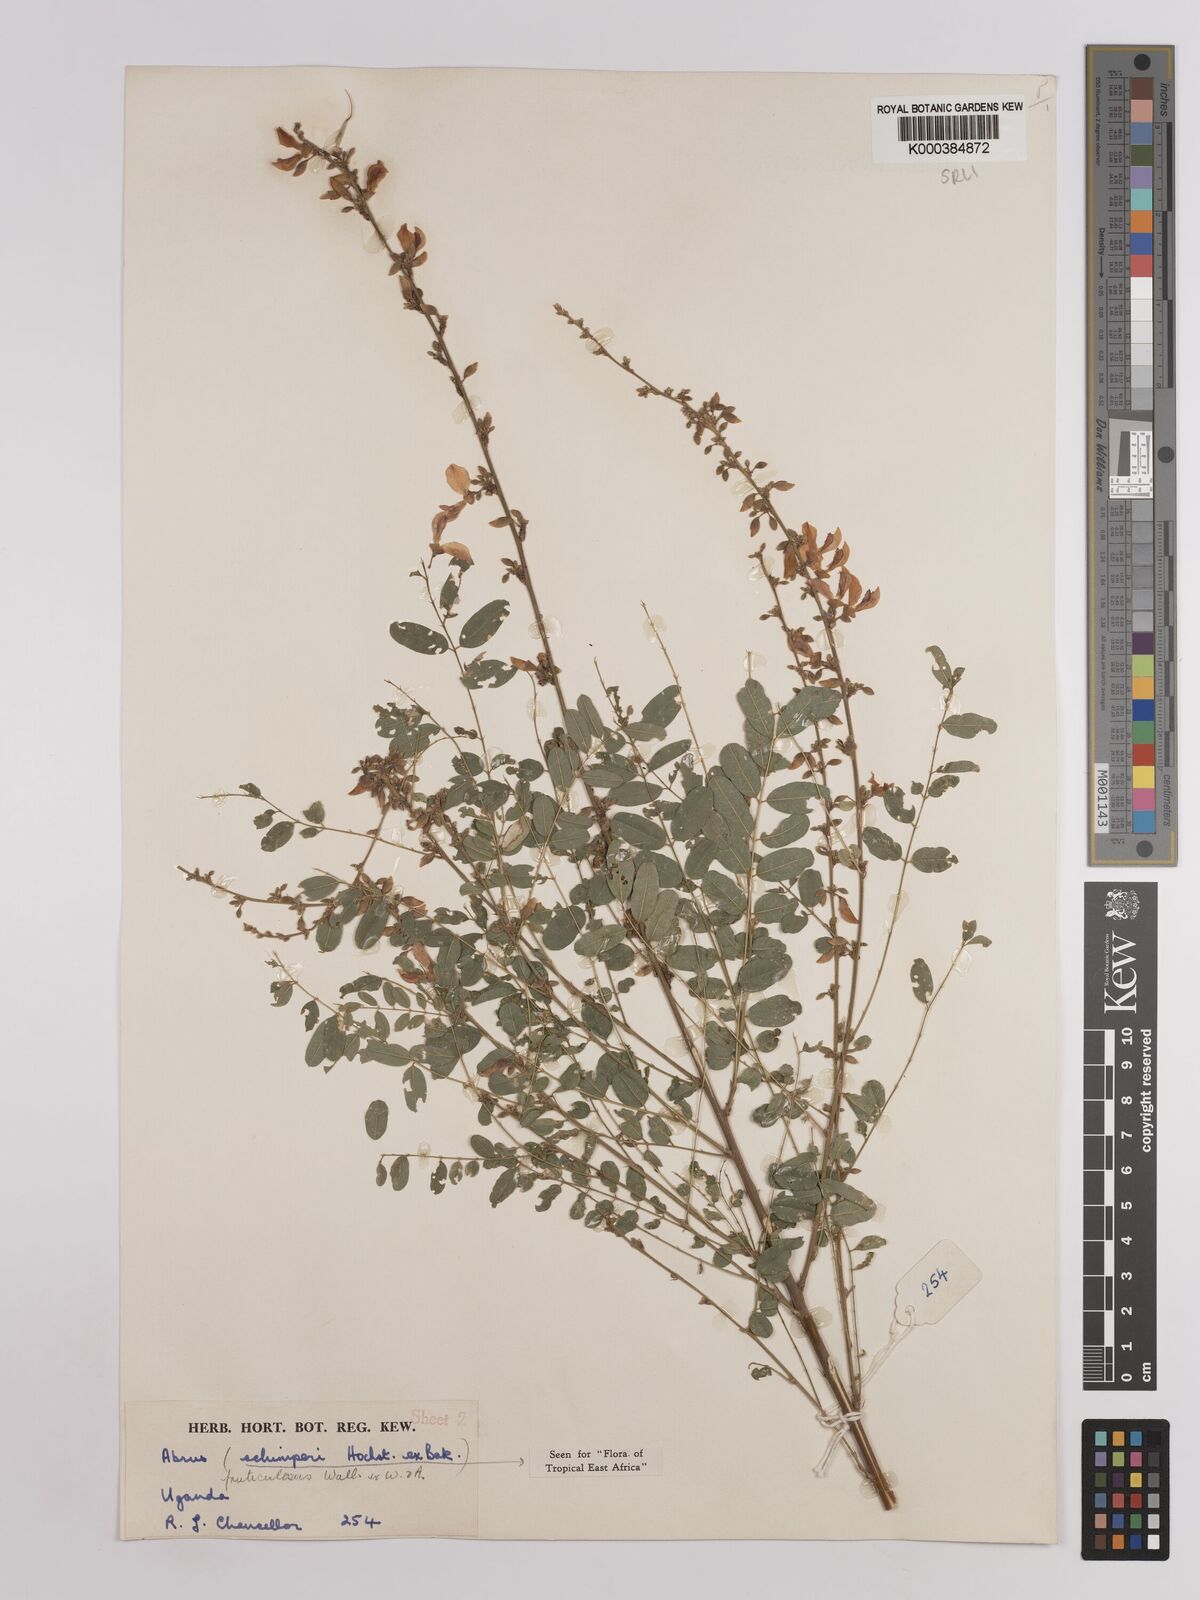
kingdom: Plantae
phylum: Tracheophyta
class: Magnoliopsida
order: Fabales
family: Fabaceae
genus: Abrus
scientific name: Abrus fruticulosus
